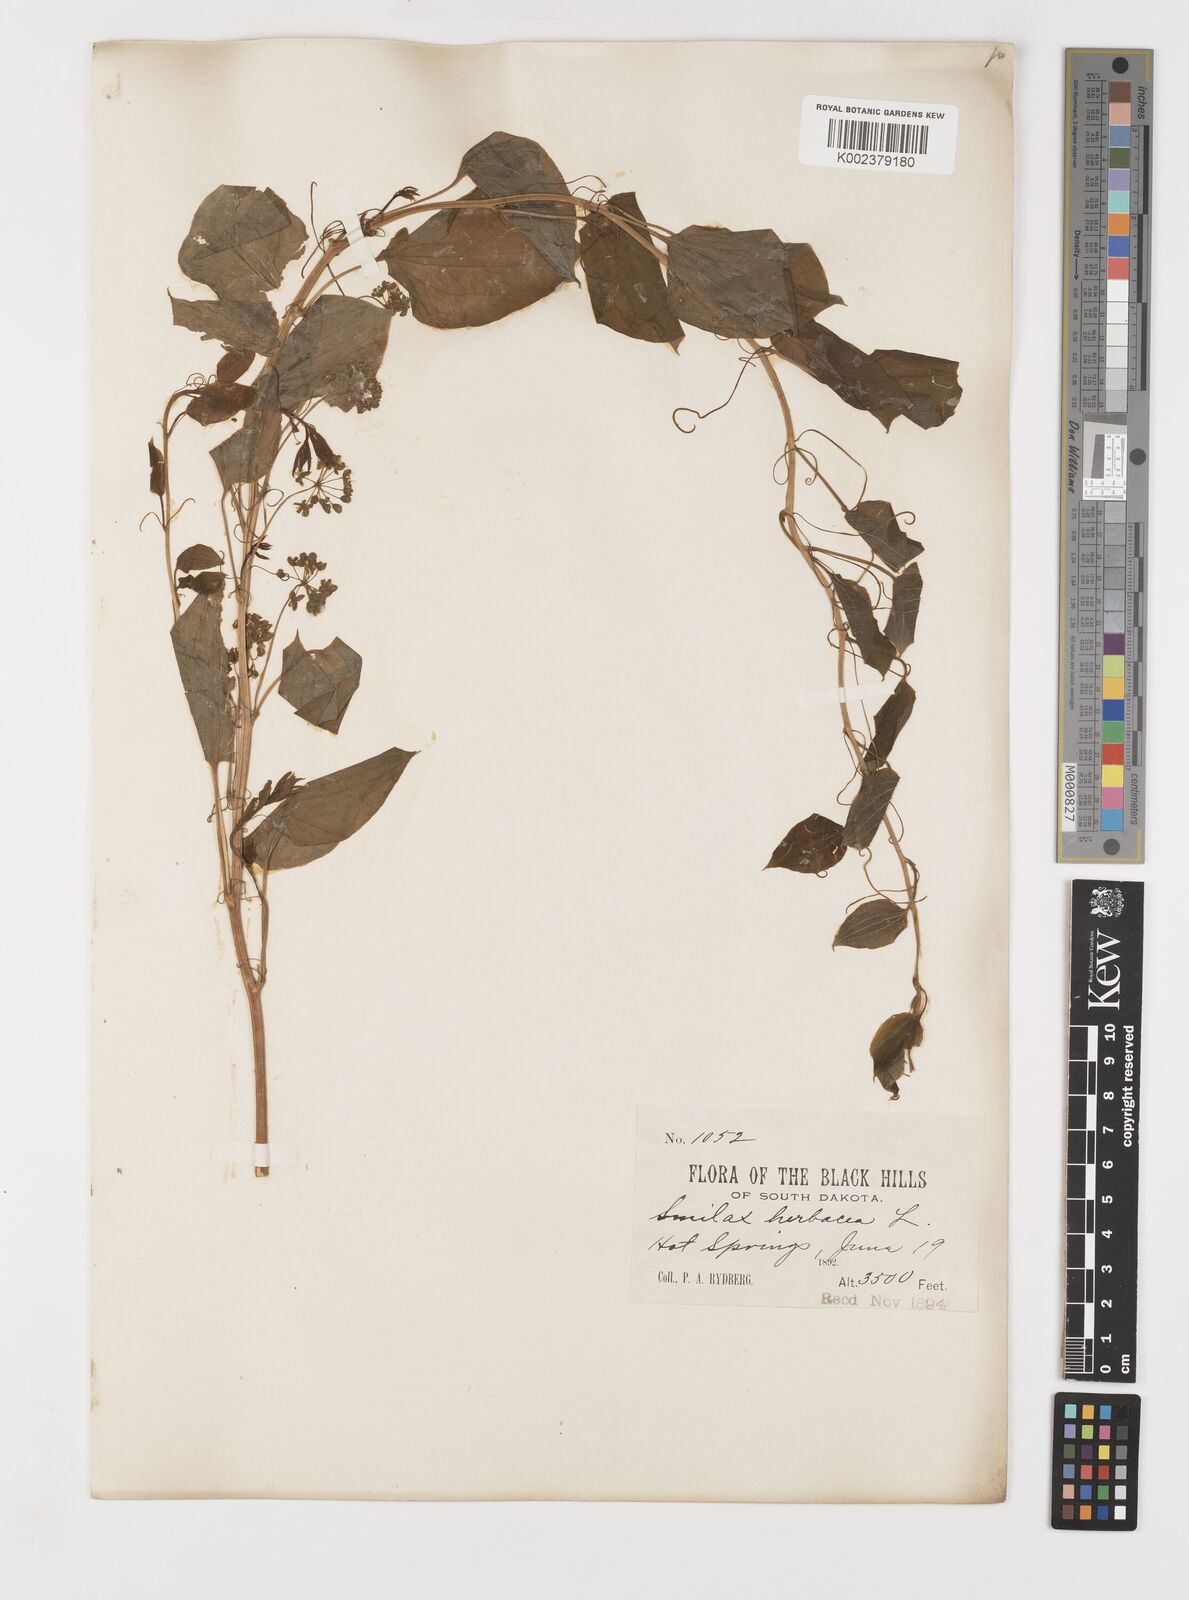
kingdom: Plantae
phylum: Tracheophyta
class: Liliopsida
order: Liliales
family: Smilacaceae
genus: Smilax
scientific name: Smilax herbacea
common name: Jacob's-ladder
